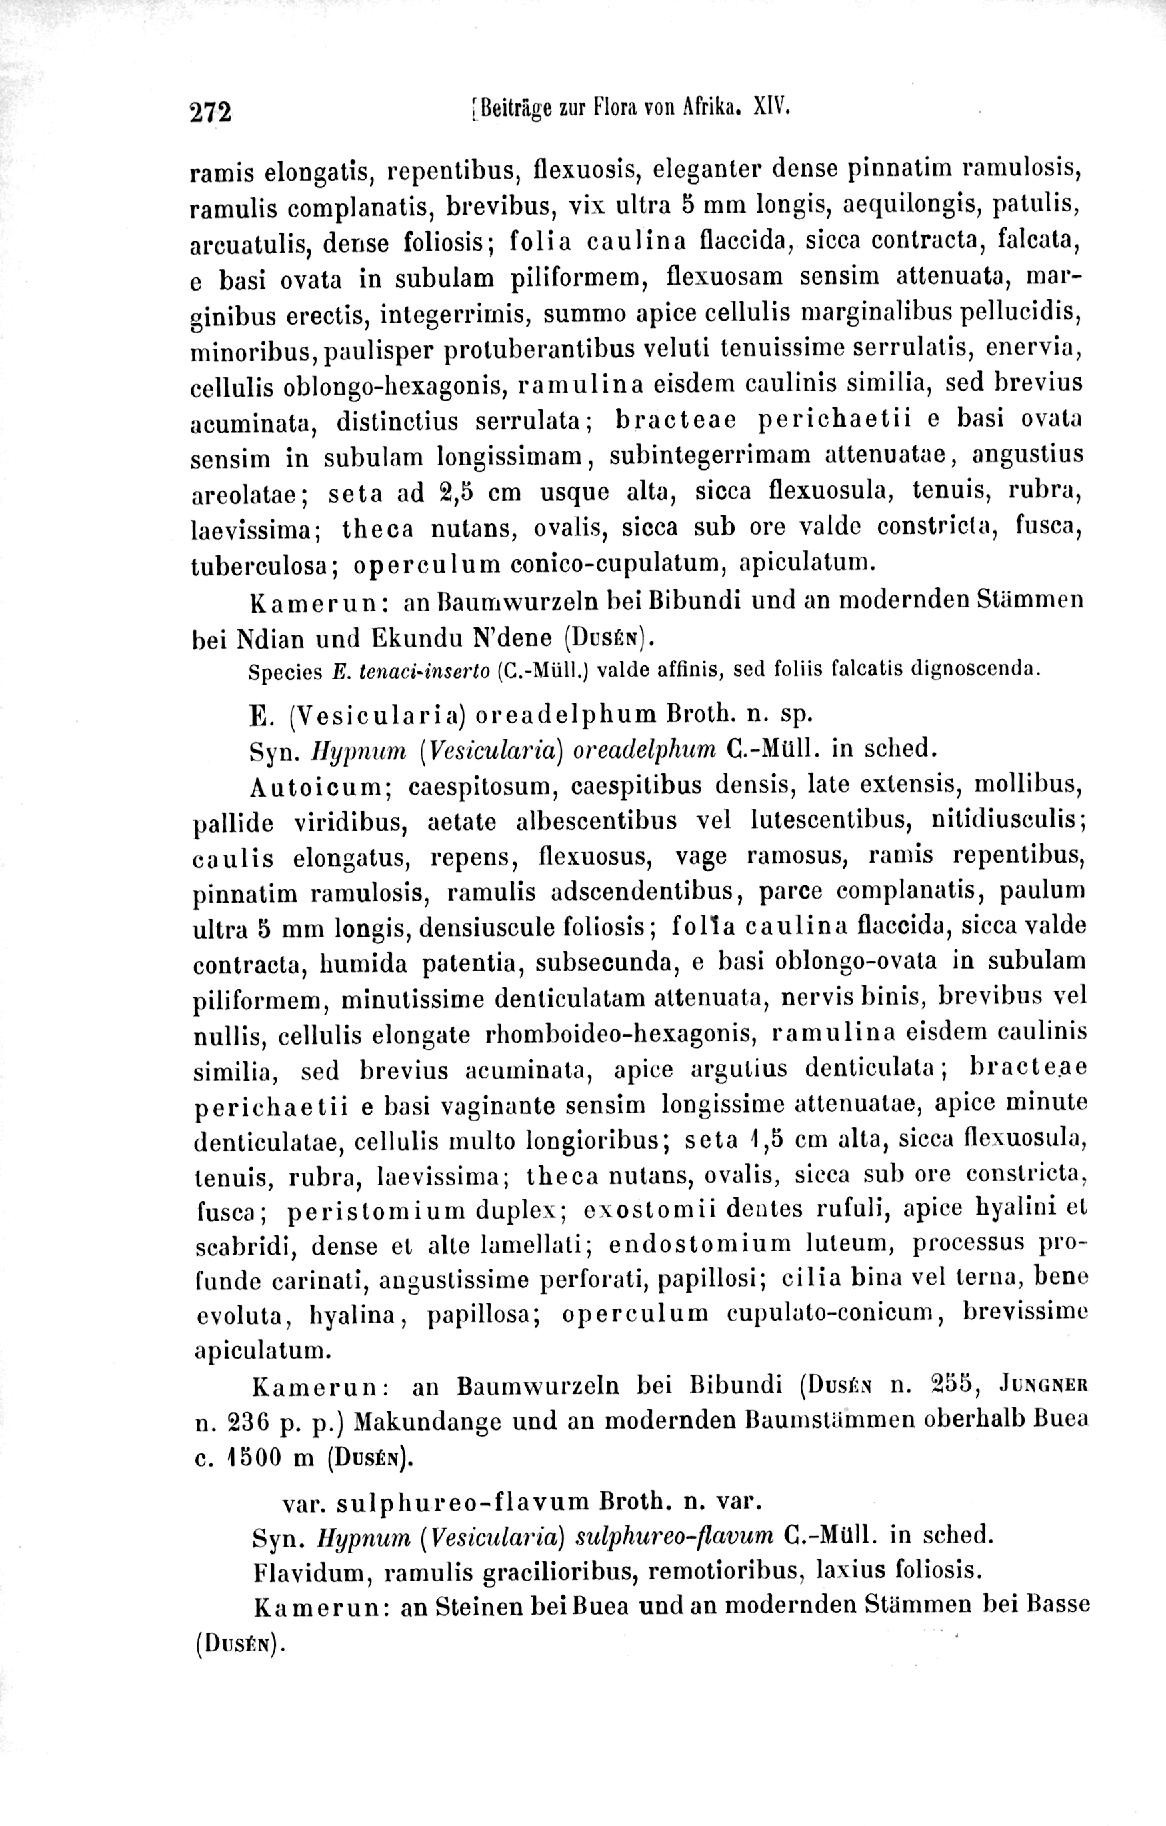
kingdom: Plantae
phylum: Bryophyta
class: Bryopsida
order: Hypnales
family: Hypnaceae
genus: Vesicularia
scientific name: Vesicularia oreadelphus
